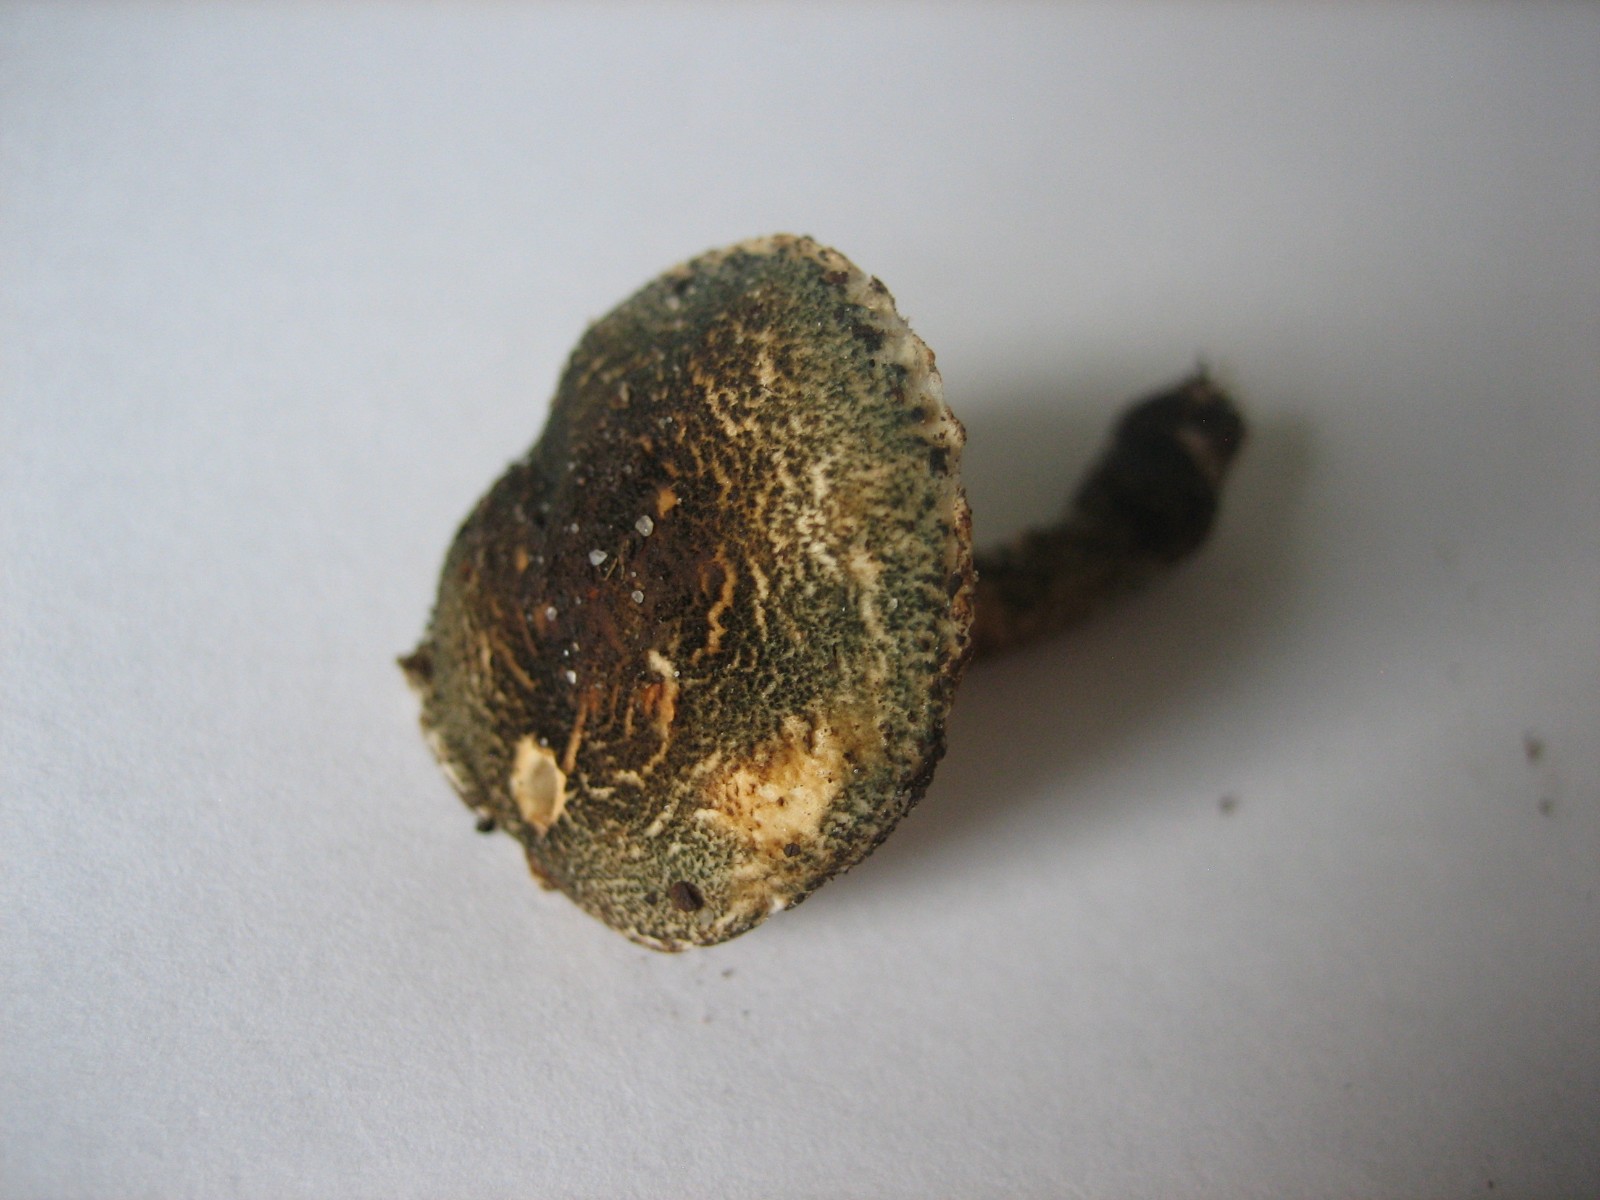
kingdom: Fungi
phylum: Basidiomycota
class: Agaricomycetes
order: Agaricales
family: Agaricaceae
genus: Lepiota
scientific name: Lepiota grangei
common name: grønskællet parasolhat
